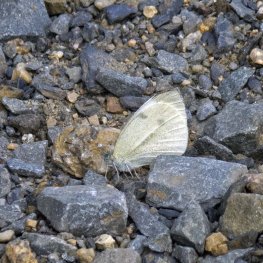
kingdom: Animalia
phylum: Arthropoda
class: Insecta
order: Lepidoptera
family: Pieridae
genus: Pieris
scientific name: Pieris rapae
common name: Cabbage White
